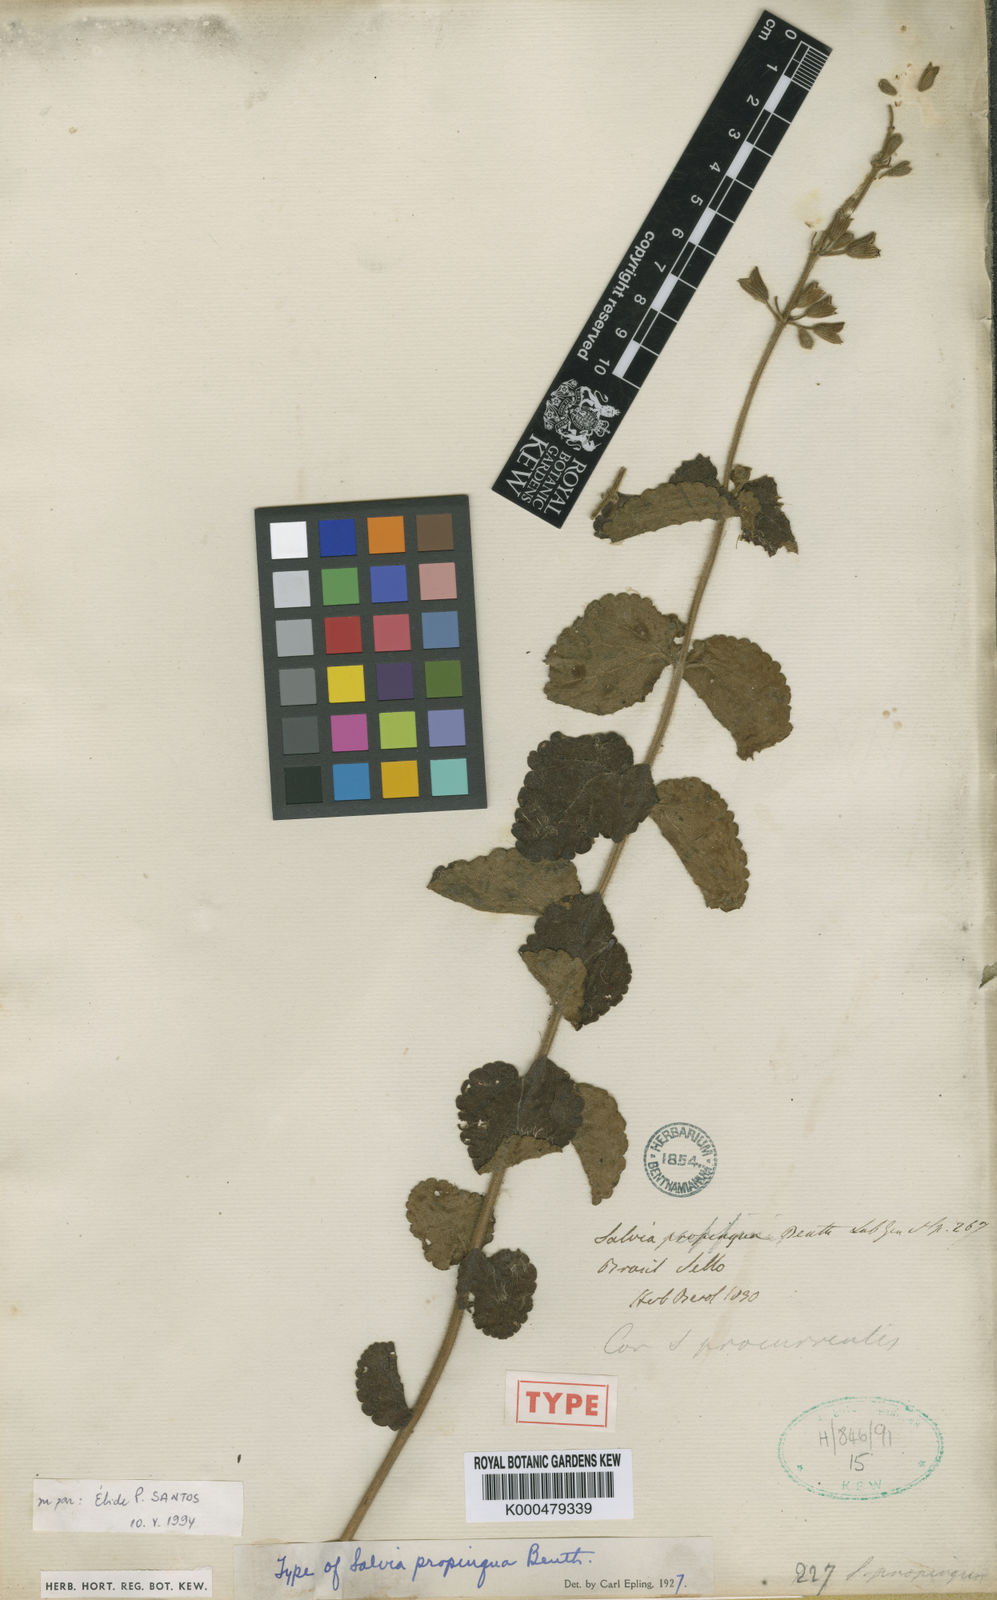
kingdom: Plantae
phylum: Tracheophyta
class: Magnoliopsida
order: Lamiales
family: Lamiaceae
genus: Salvia
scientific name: Salvia propinqua
